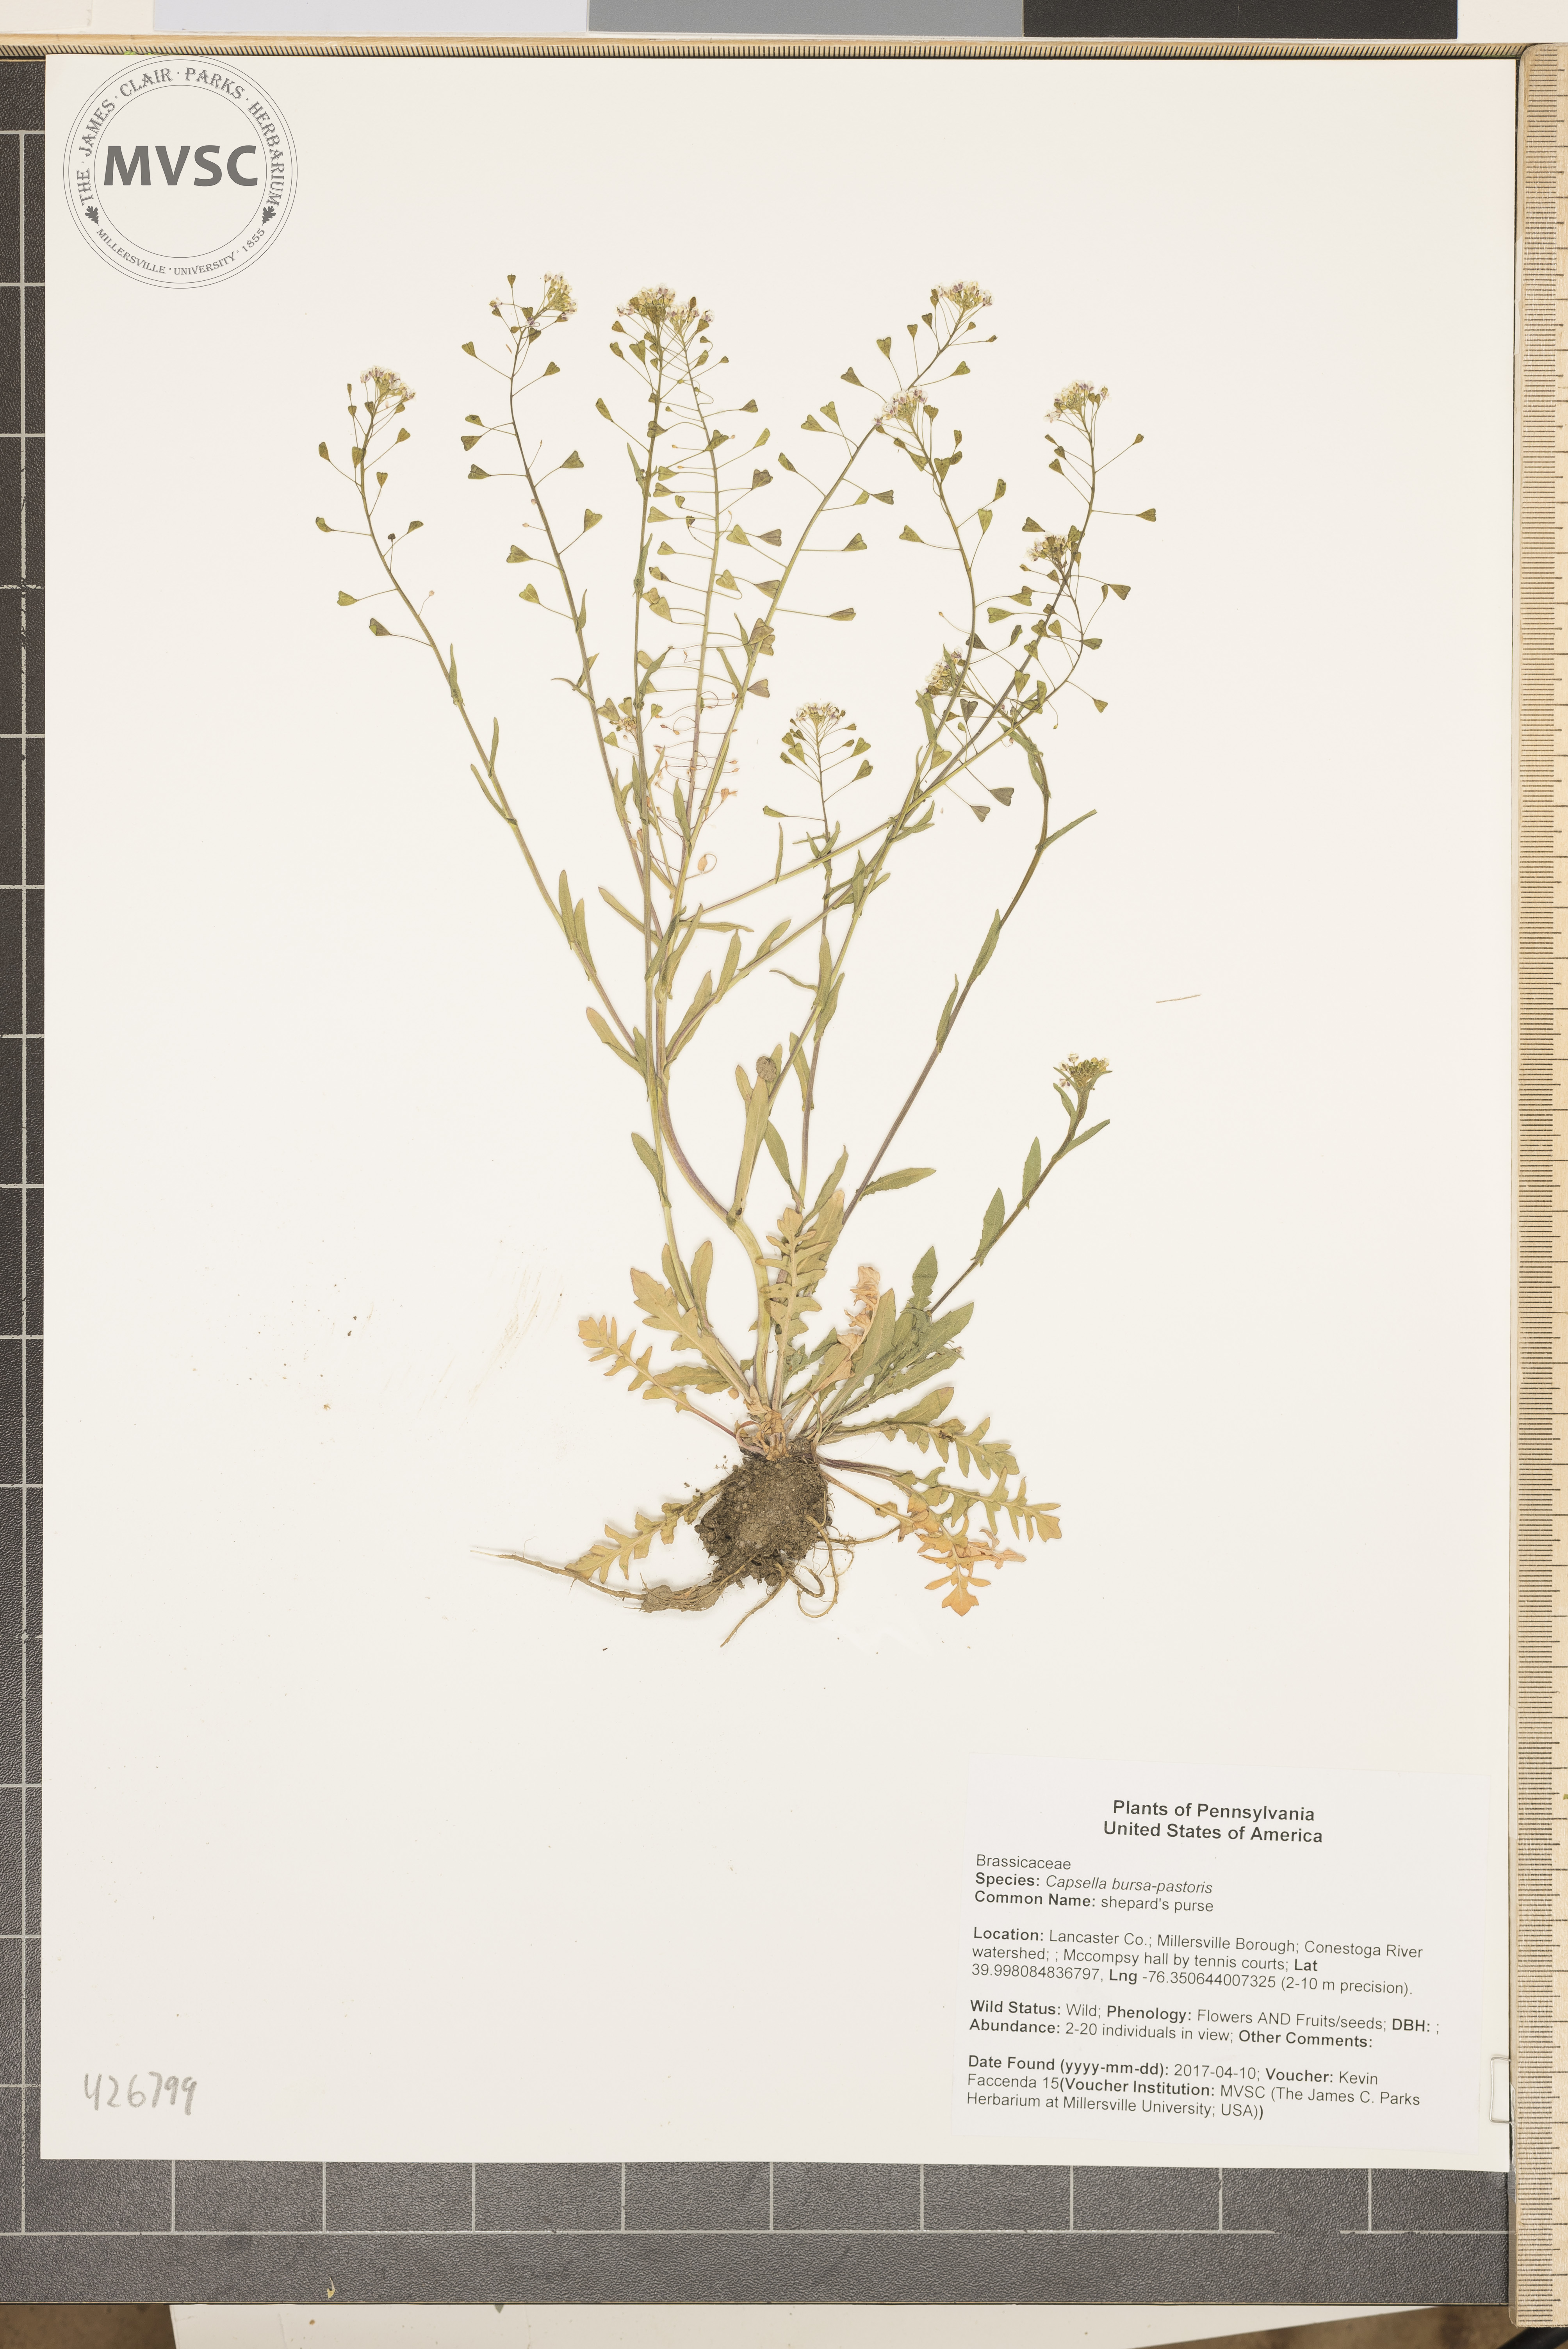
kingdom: Plantae
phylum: Tracheophyta
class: Magnoliopsida
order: Brassicales
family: Brassicaceae
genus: Capsella
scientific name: Capsella bursa-pastoris
